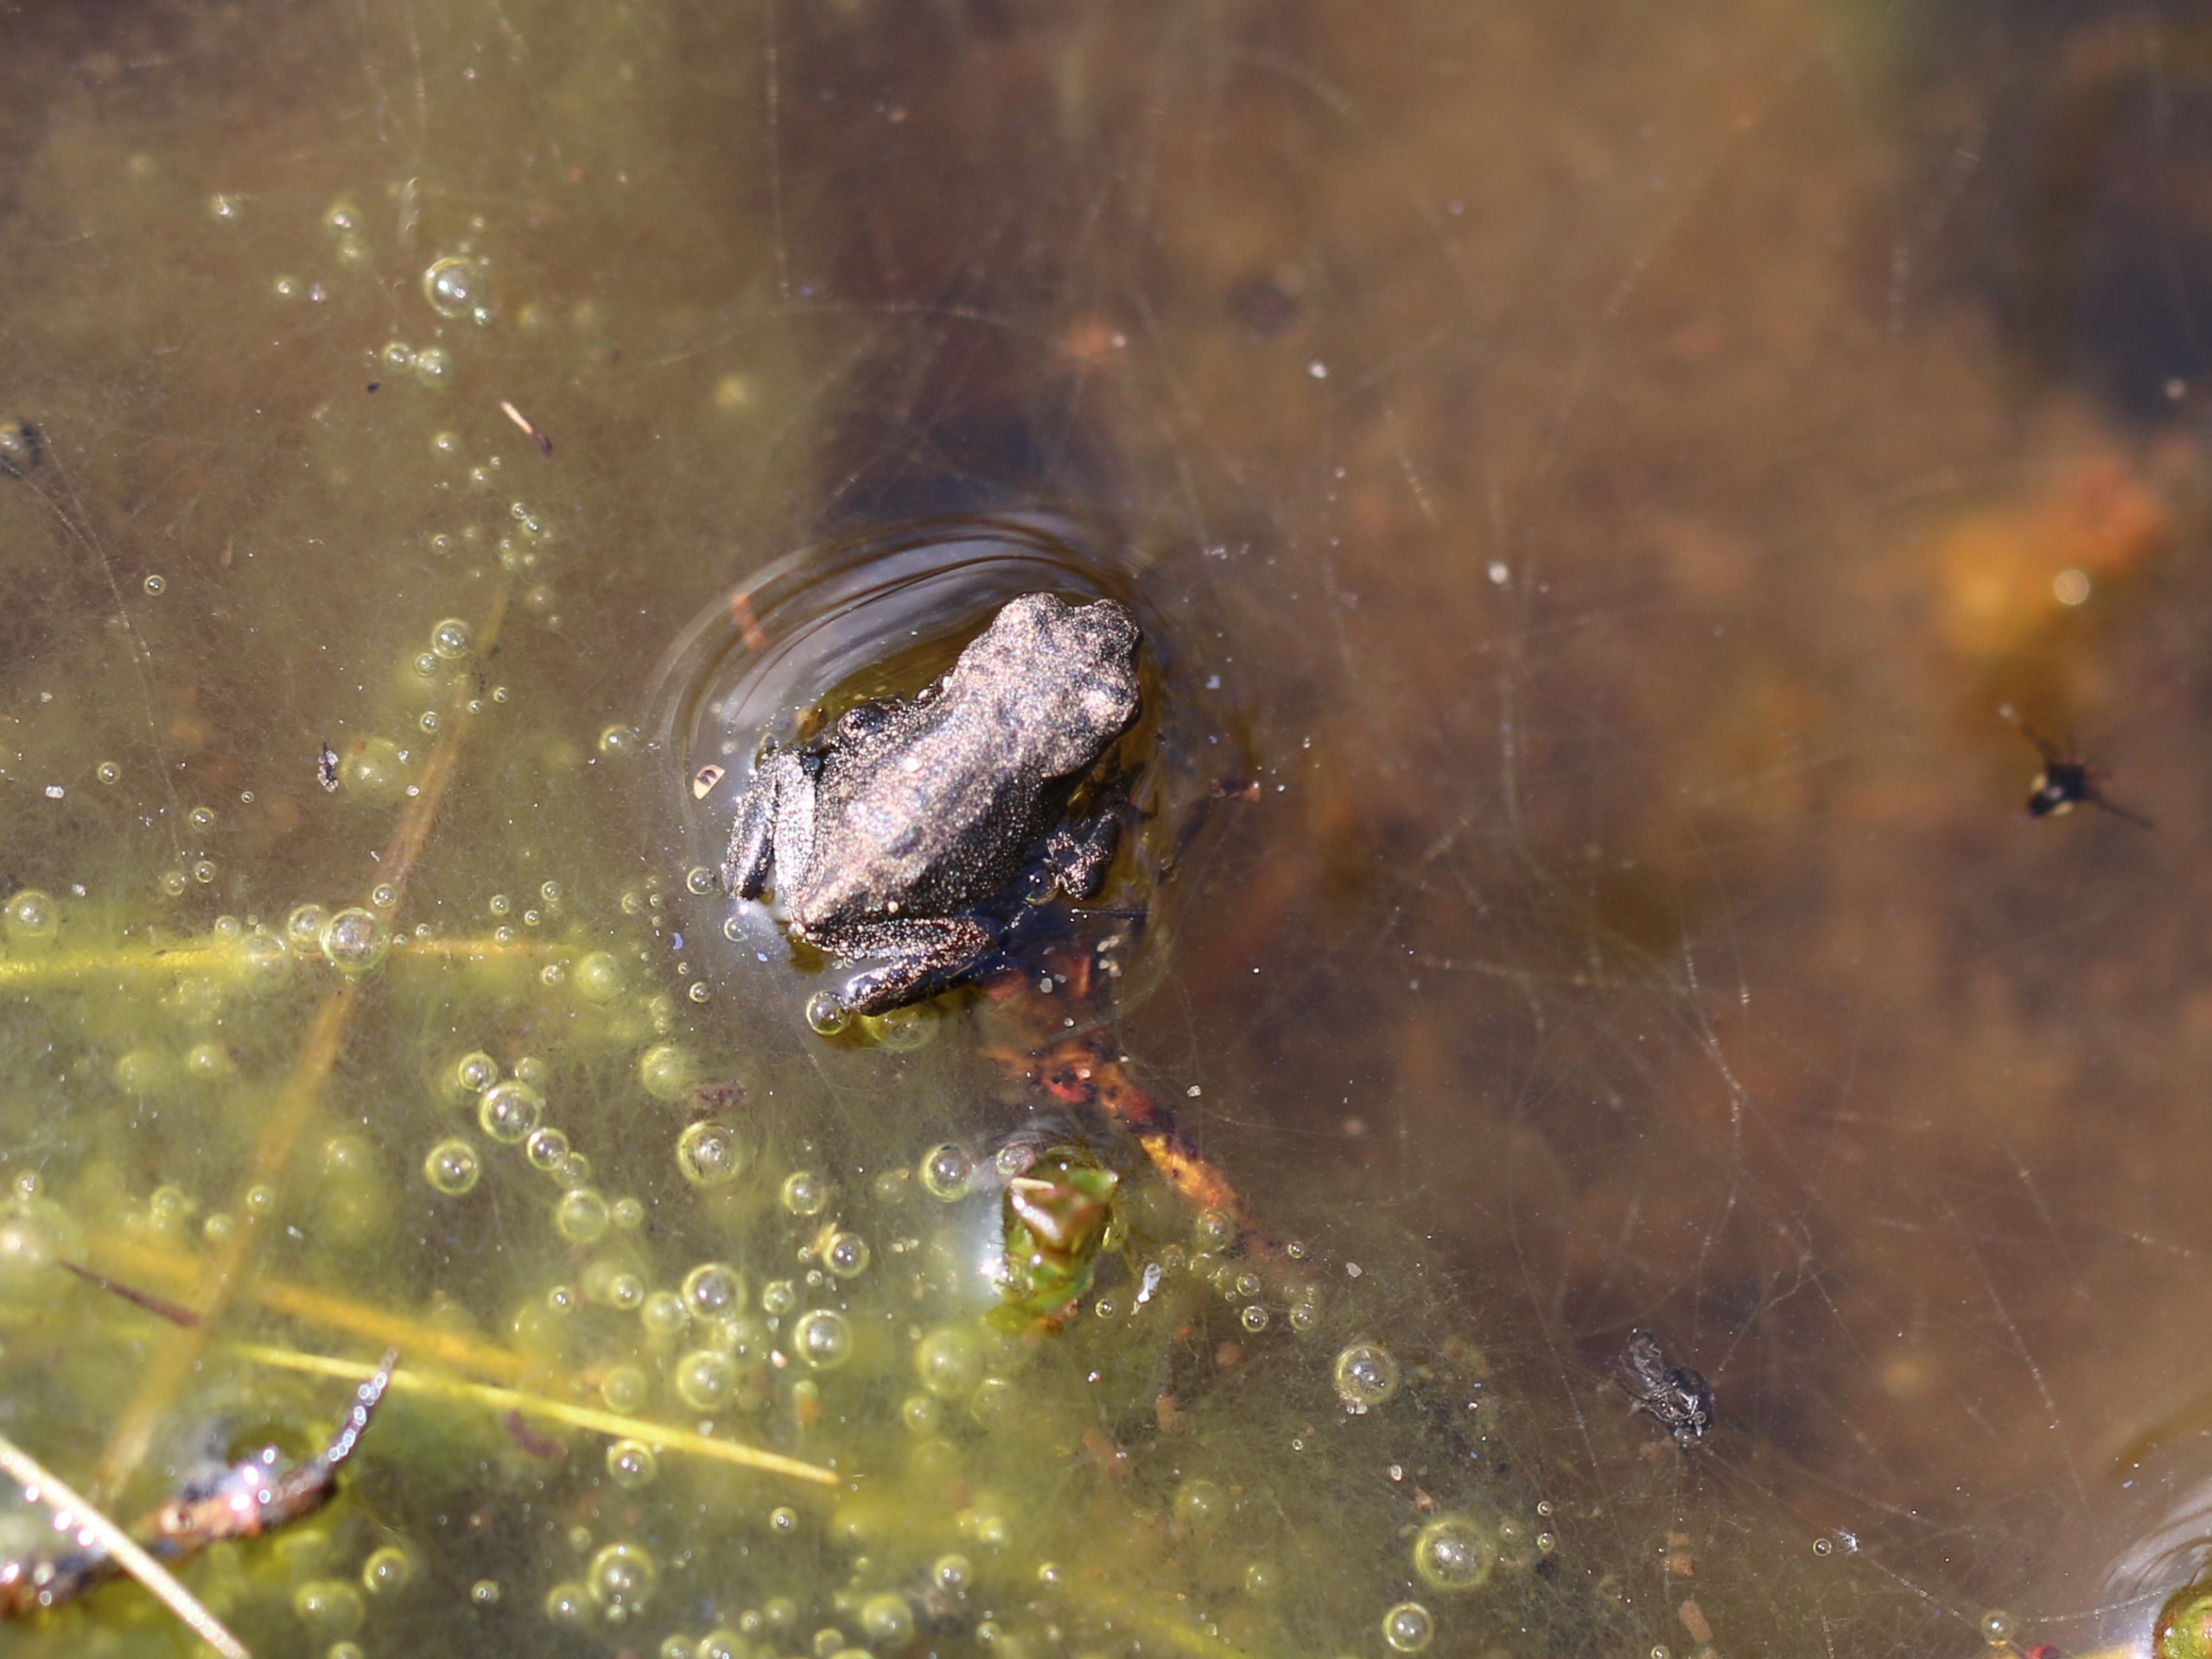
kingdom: Animalia
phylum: Chordata
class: Amphibia
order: Anura
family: Bufonidae
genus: Bufo
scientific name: Bufo bufo
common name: Skrubtudse
